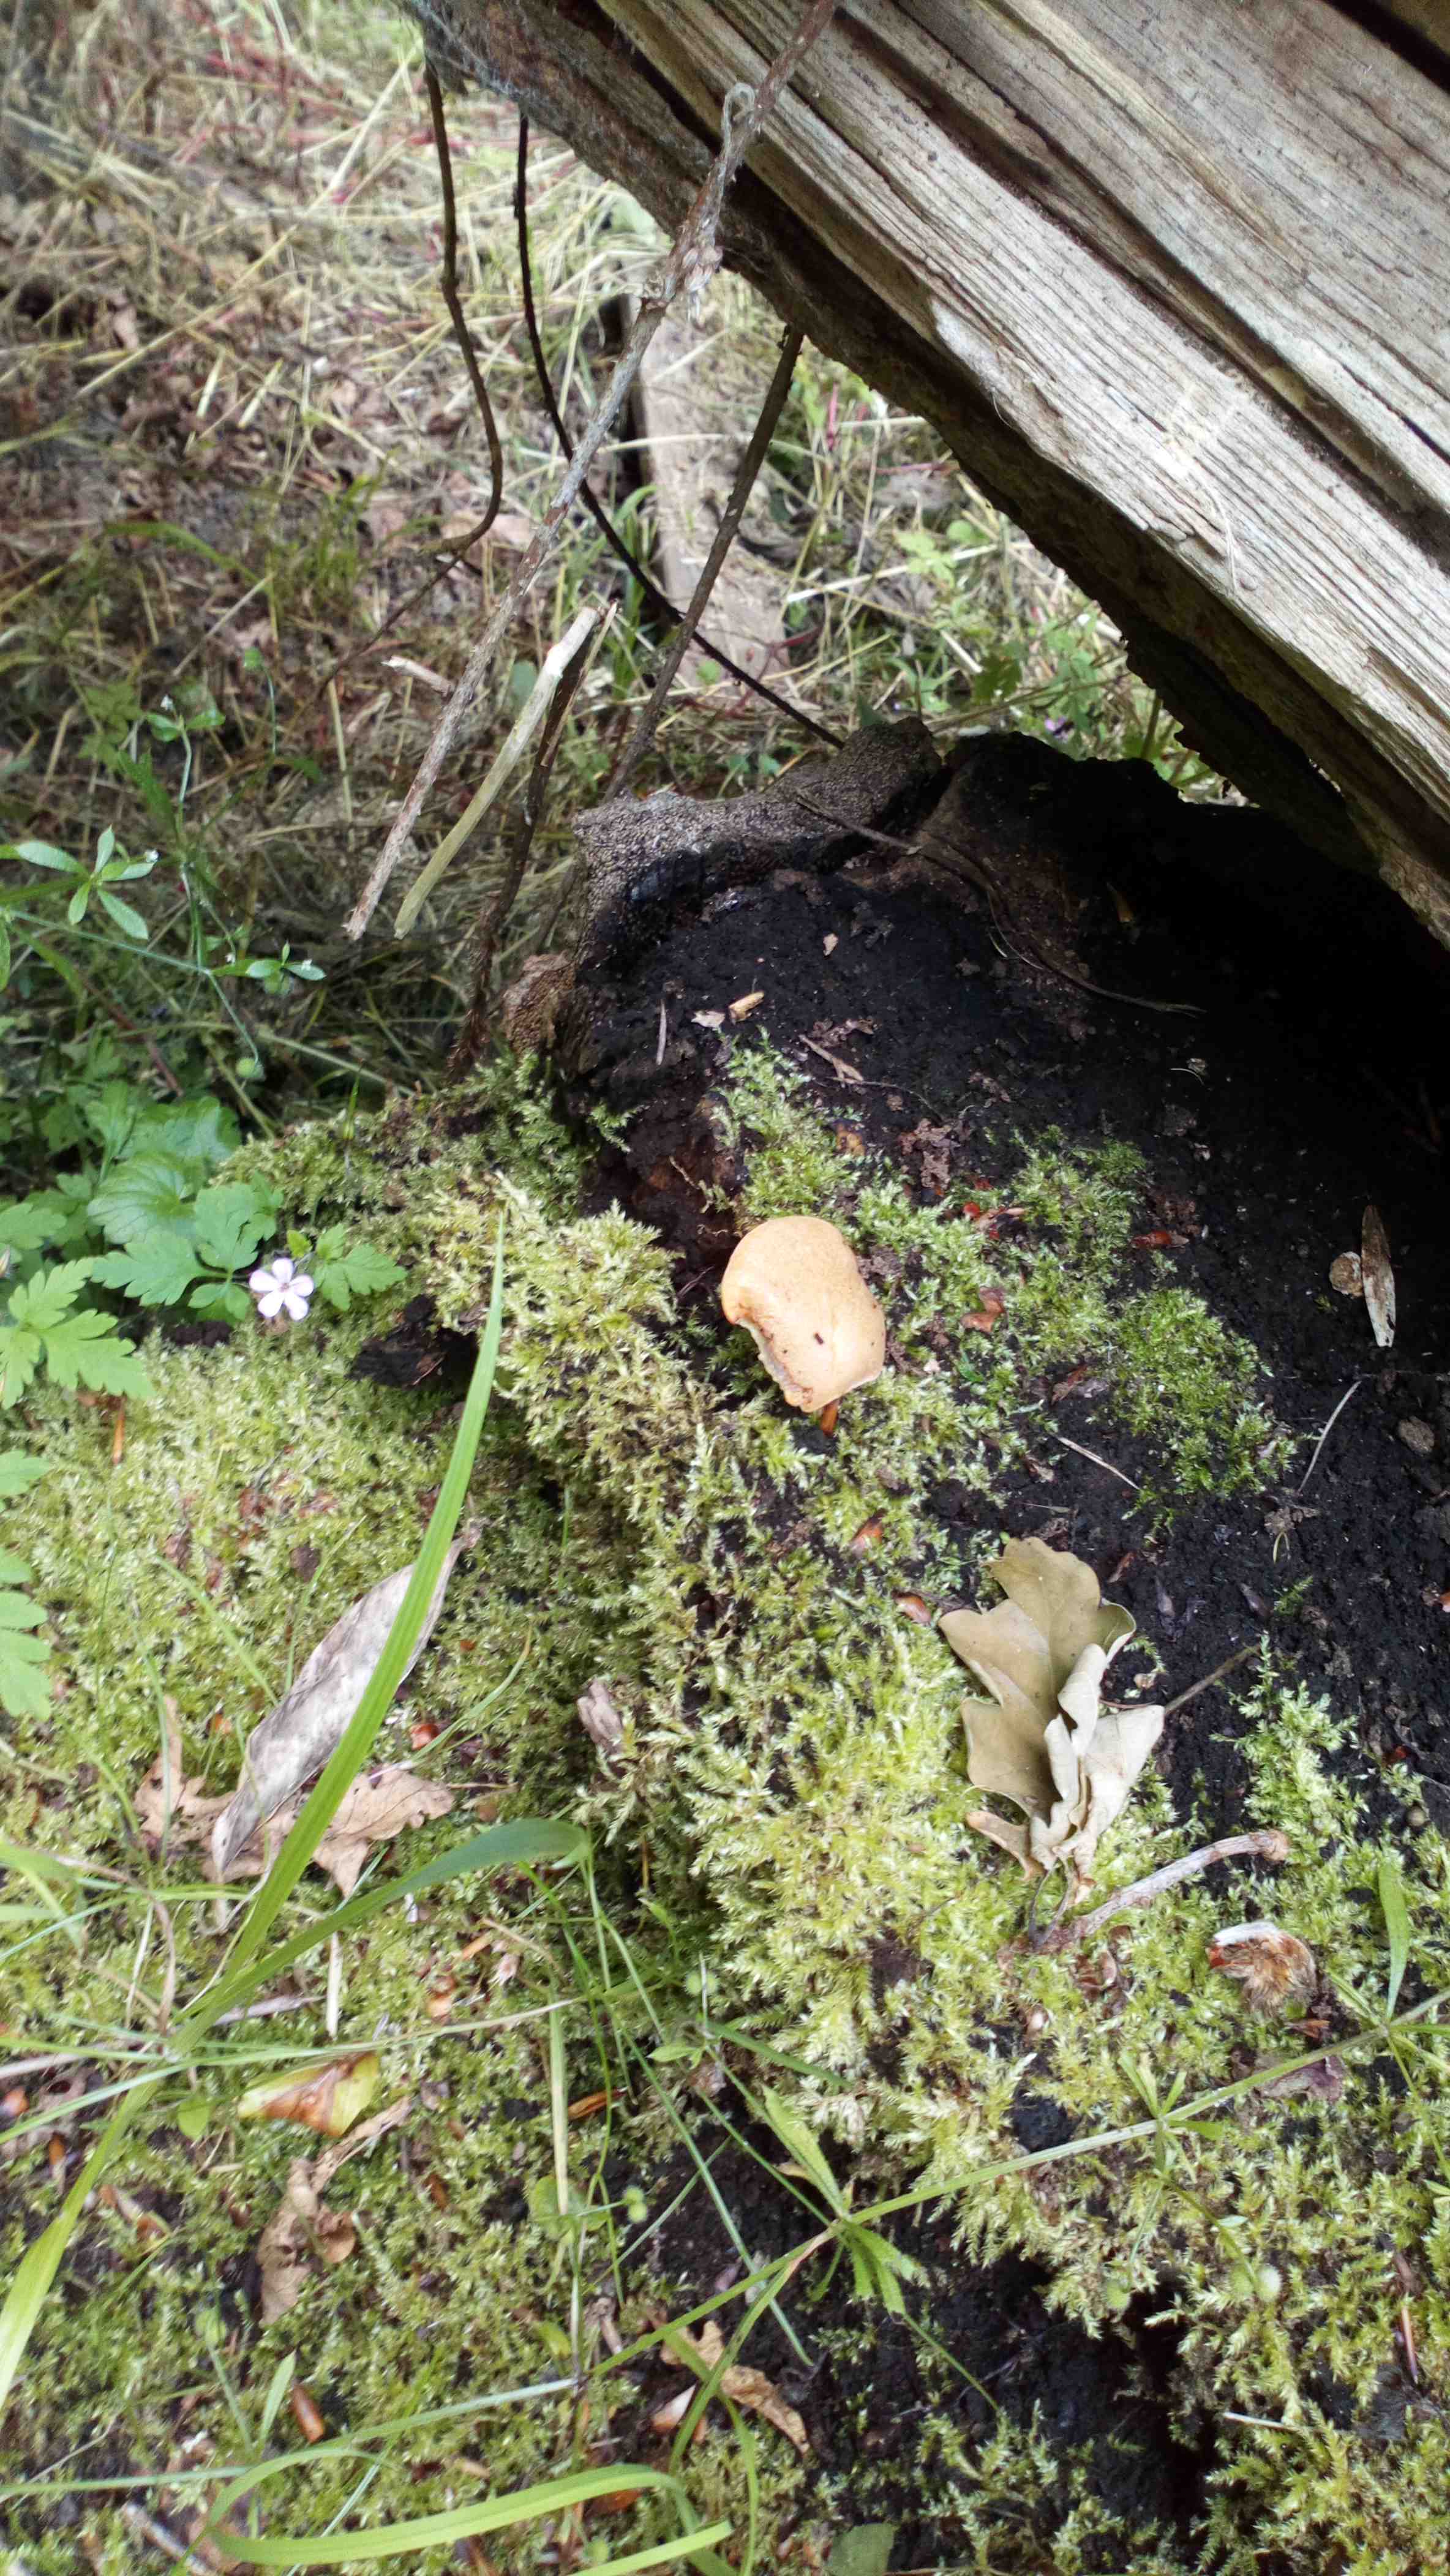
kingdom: Fungi
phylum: Basidiomycota
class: Agaricomycetes
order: Polyporales
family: Polyporaceae
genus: Lentinus
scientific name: Lentinus substrictus
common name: forårs-stilkporesvamp
